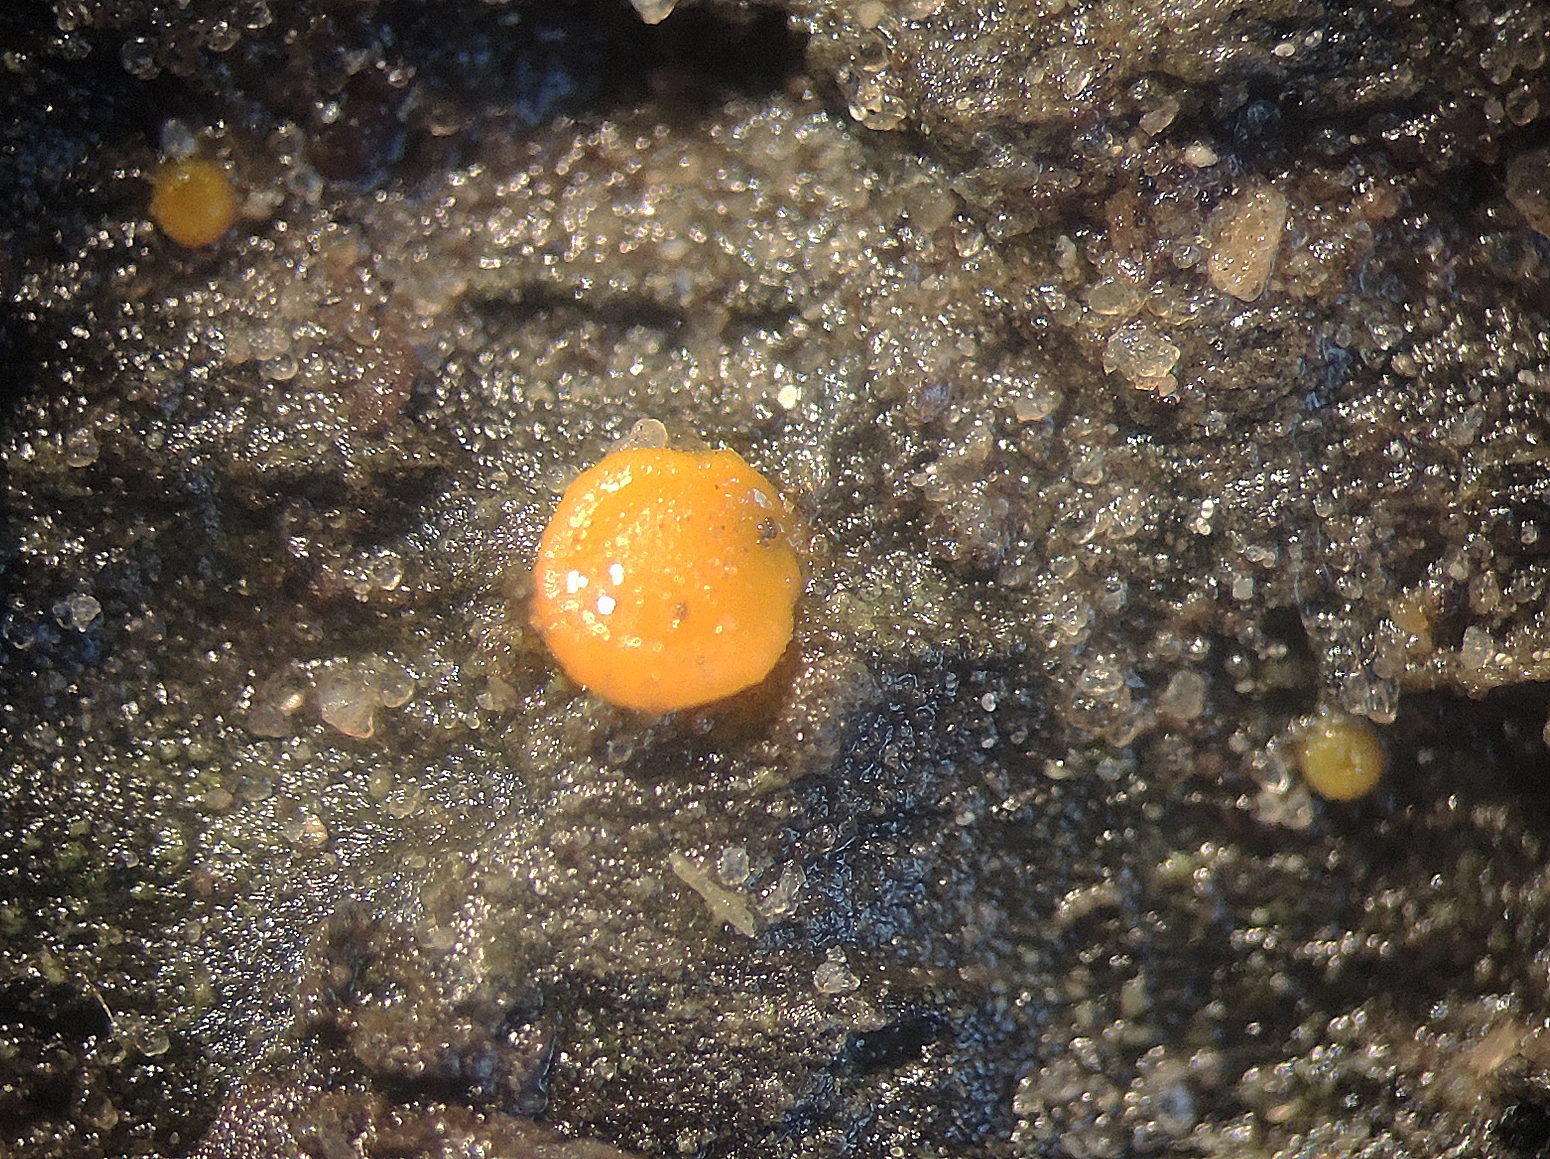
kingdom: Fungi
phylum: Ascomycota
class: Pezizomycetes
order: Pezizales
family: Pyronemataceae
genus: Miladina
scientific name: Miladina lecithina
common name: vandbæger
